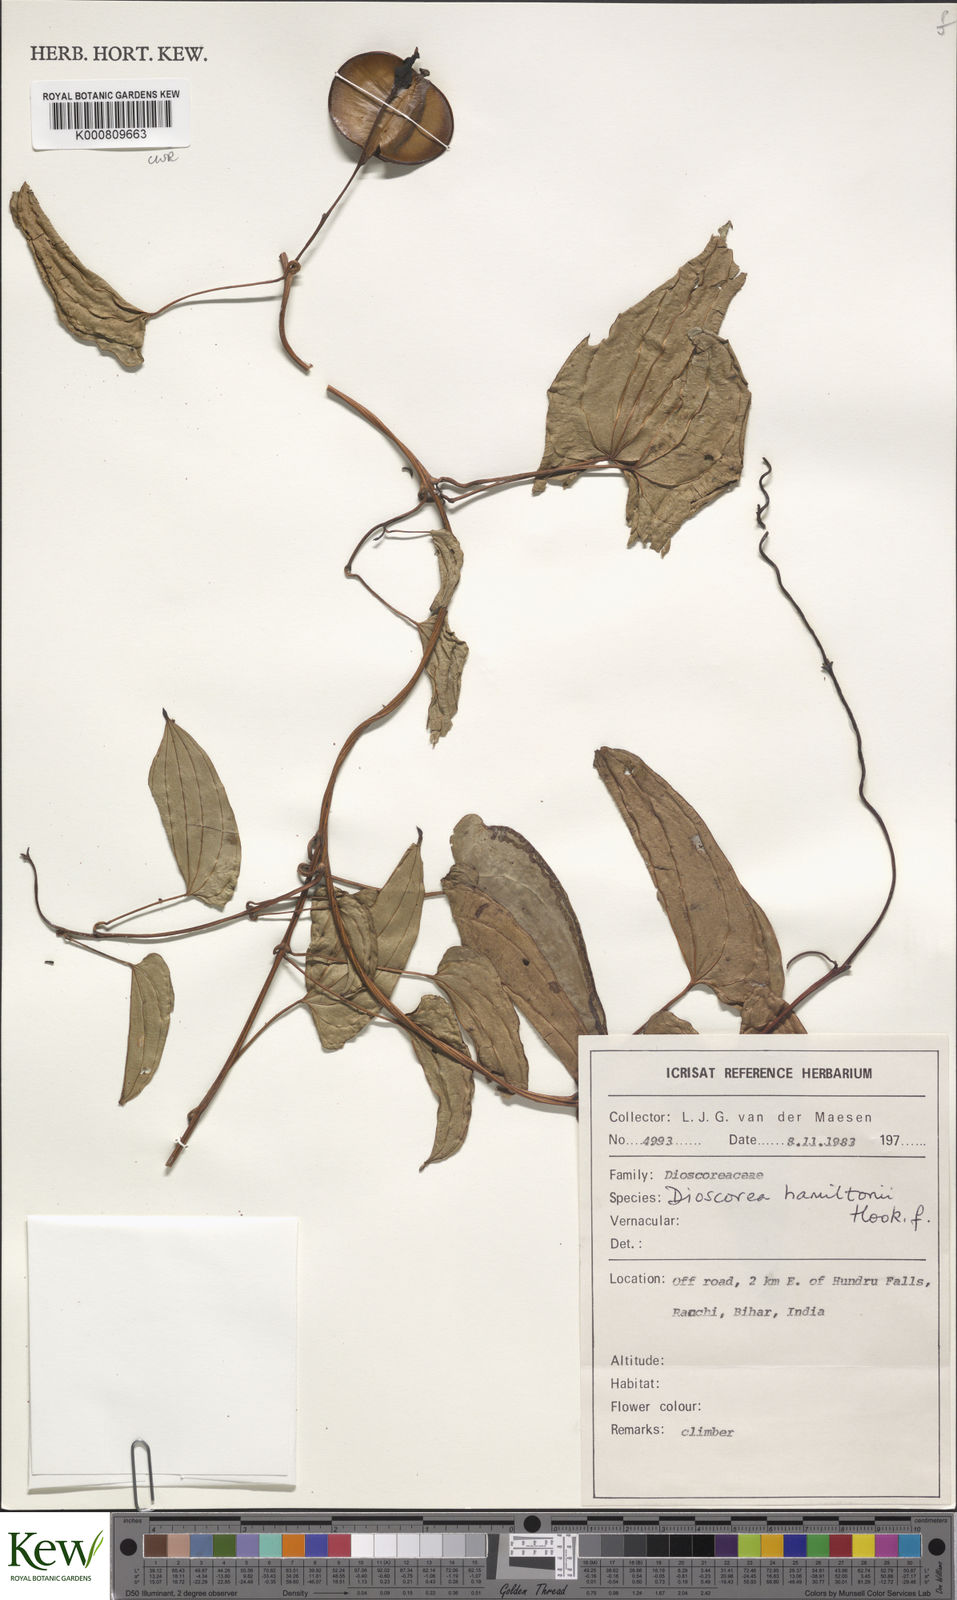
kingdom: Plantae
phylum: Tracheophyta
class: Liliopsida
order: Dioscoreales
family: Dioscoreaceae
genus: Dioscorea
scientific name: Dioscorea hamiltonii
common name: Mountain yam
